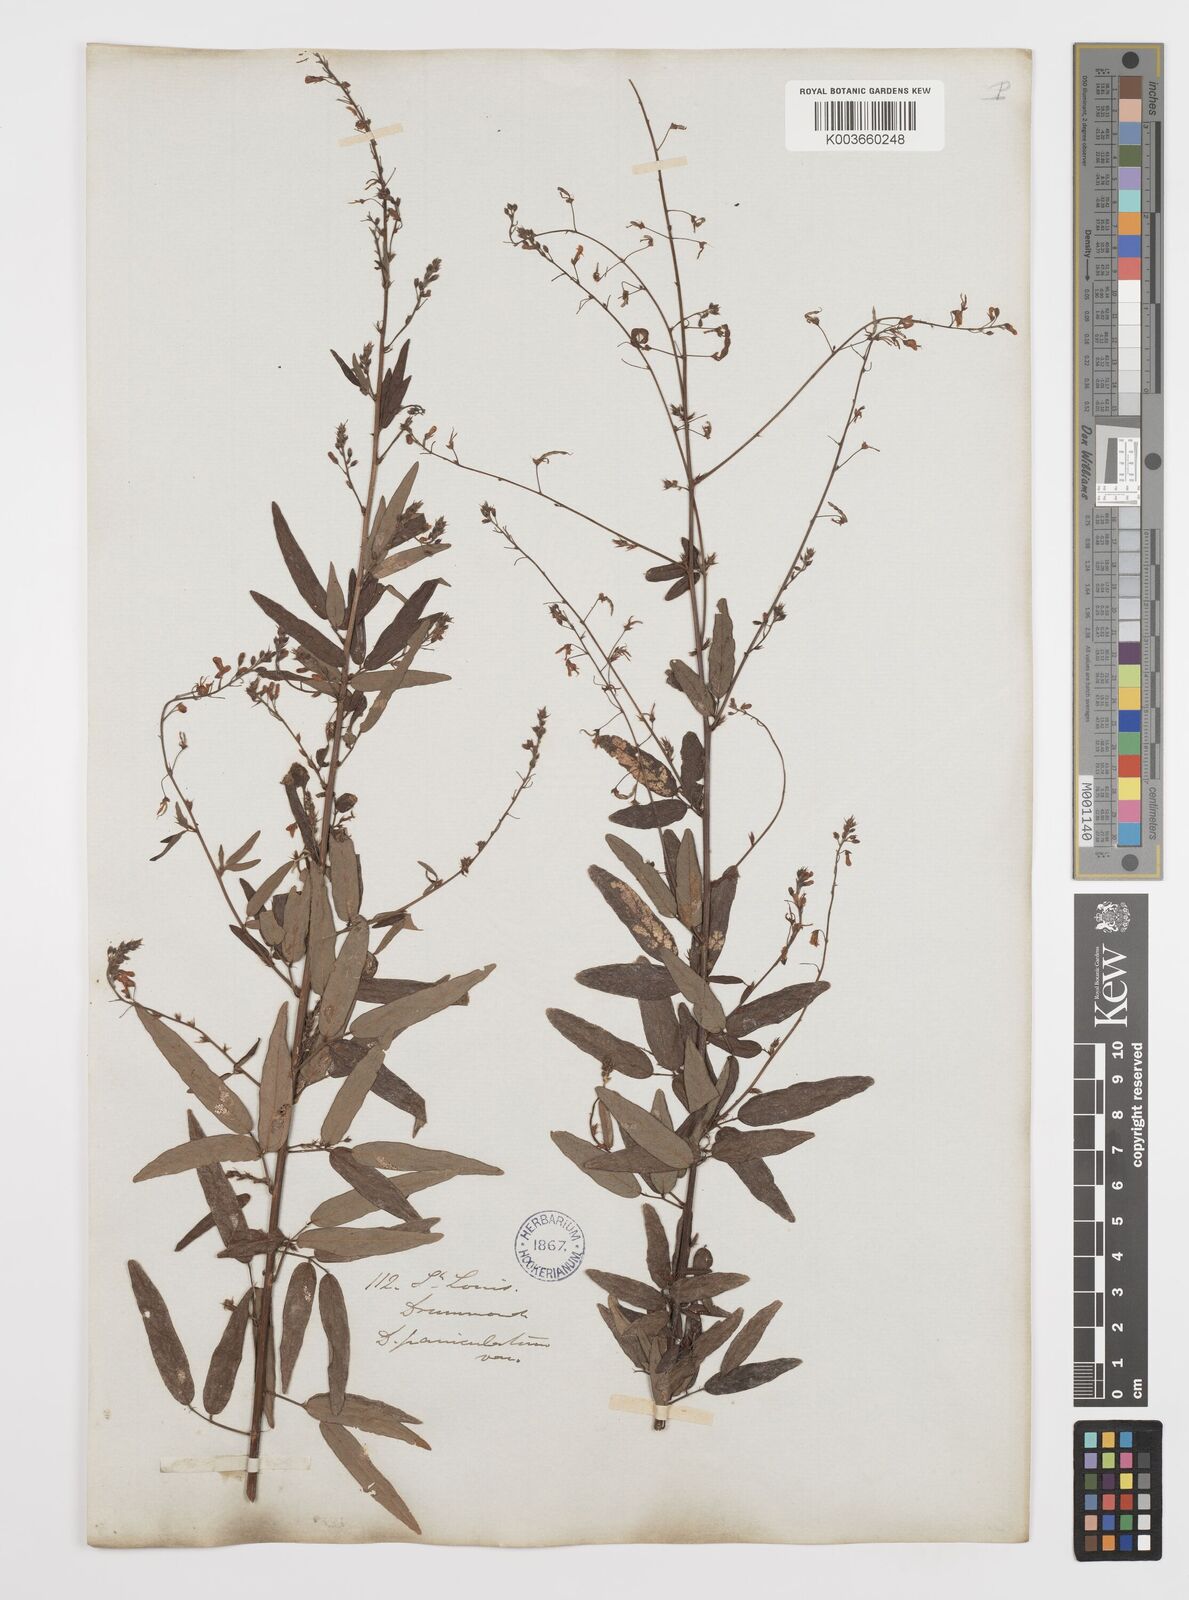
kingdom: Plantae
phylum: Tracheophyta
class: Magnoliopsida
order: Fabales
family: Fabaceae
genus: Desmodium
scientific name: Desmodium paniculatum
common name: Panicled tick-clover
